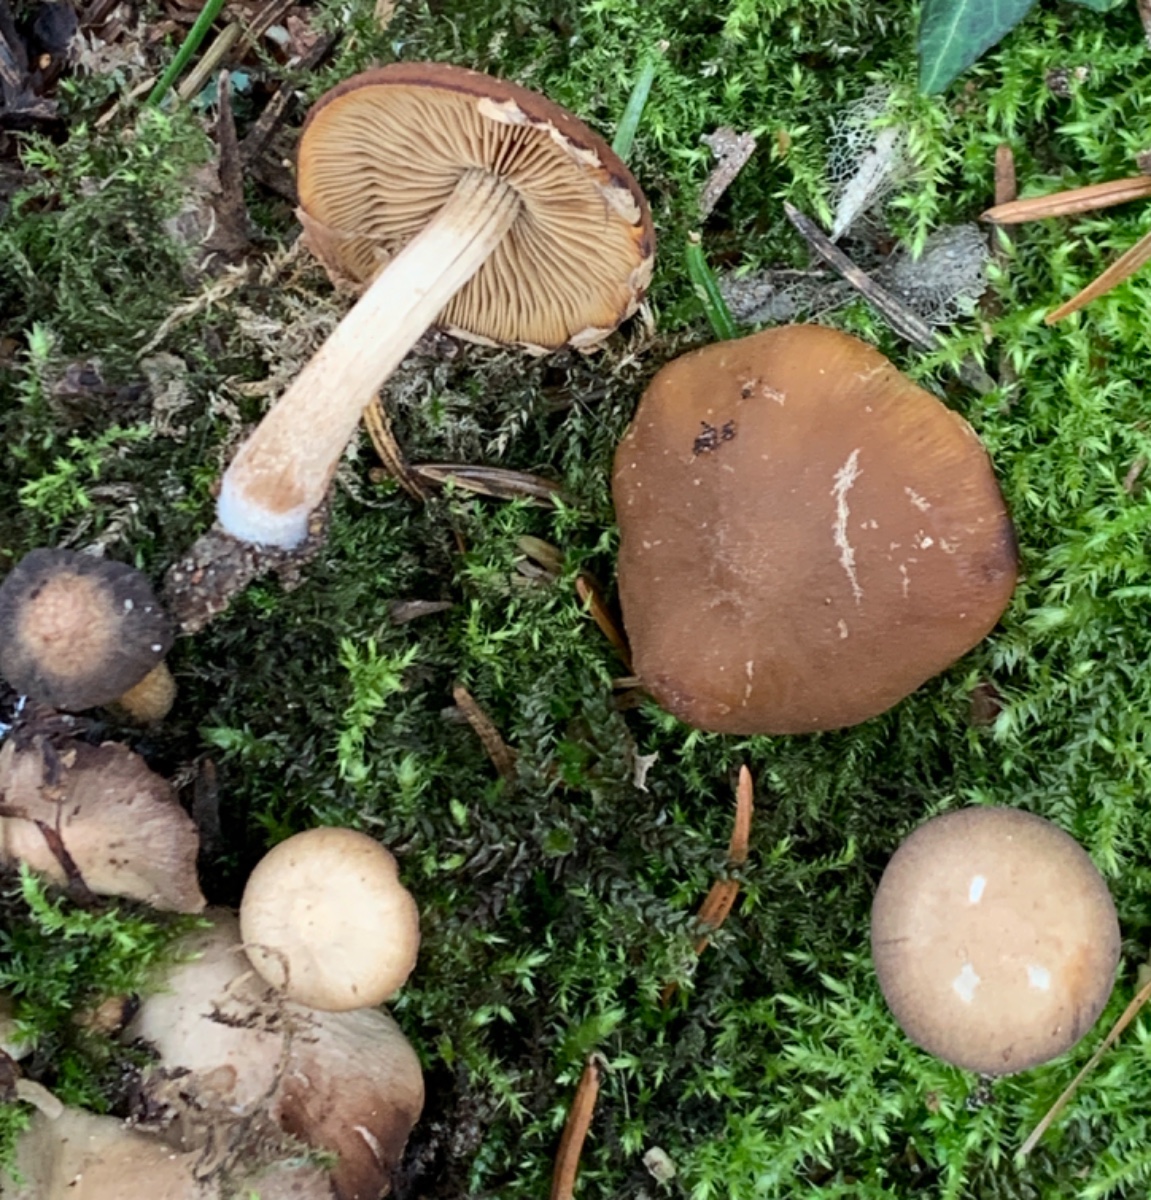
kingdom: Fungi
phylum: Basidiomycota
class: Agaricomycetes
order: Agaricales
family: Psathyrellaceae
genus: Psathyrella
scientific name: Psathyrella piluliformis
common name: lysstokket mørkhat
